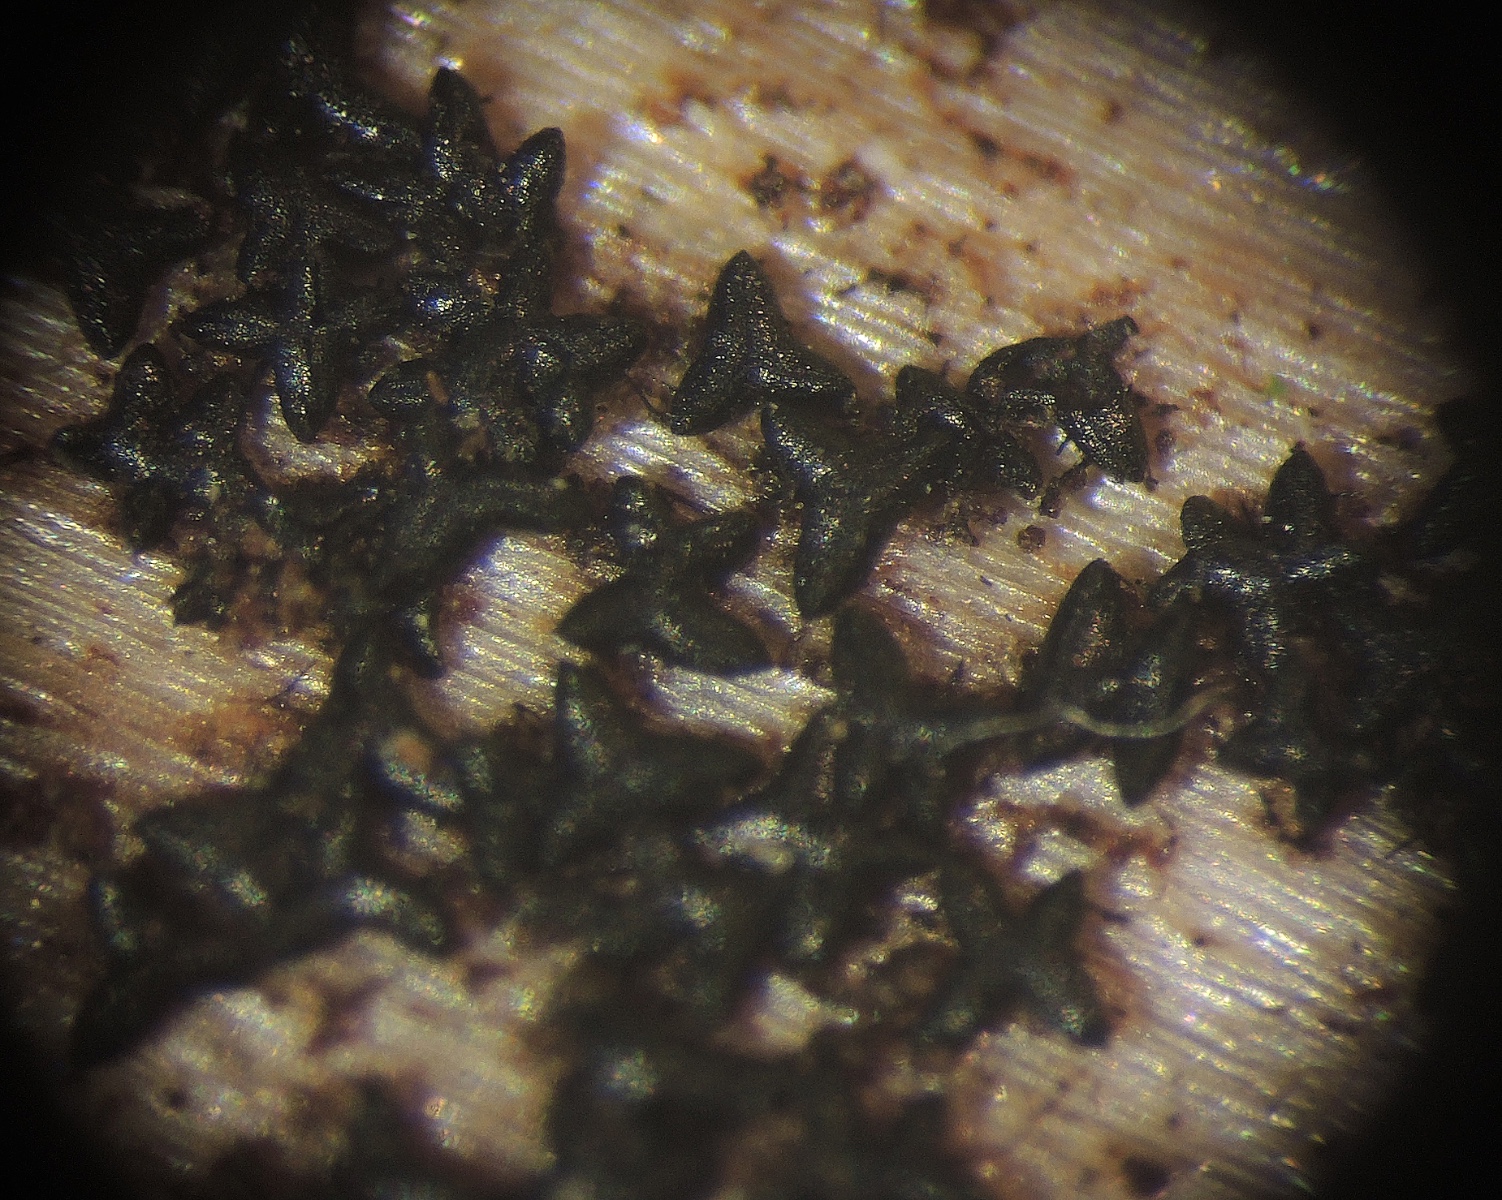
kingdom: Fungi
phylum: Ascomycota
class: Dothideomycetes
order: Mytilinidiales
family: Mytilinidiaceae
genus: Actidium
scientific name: Actidium hysterioides
